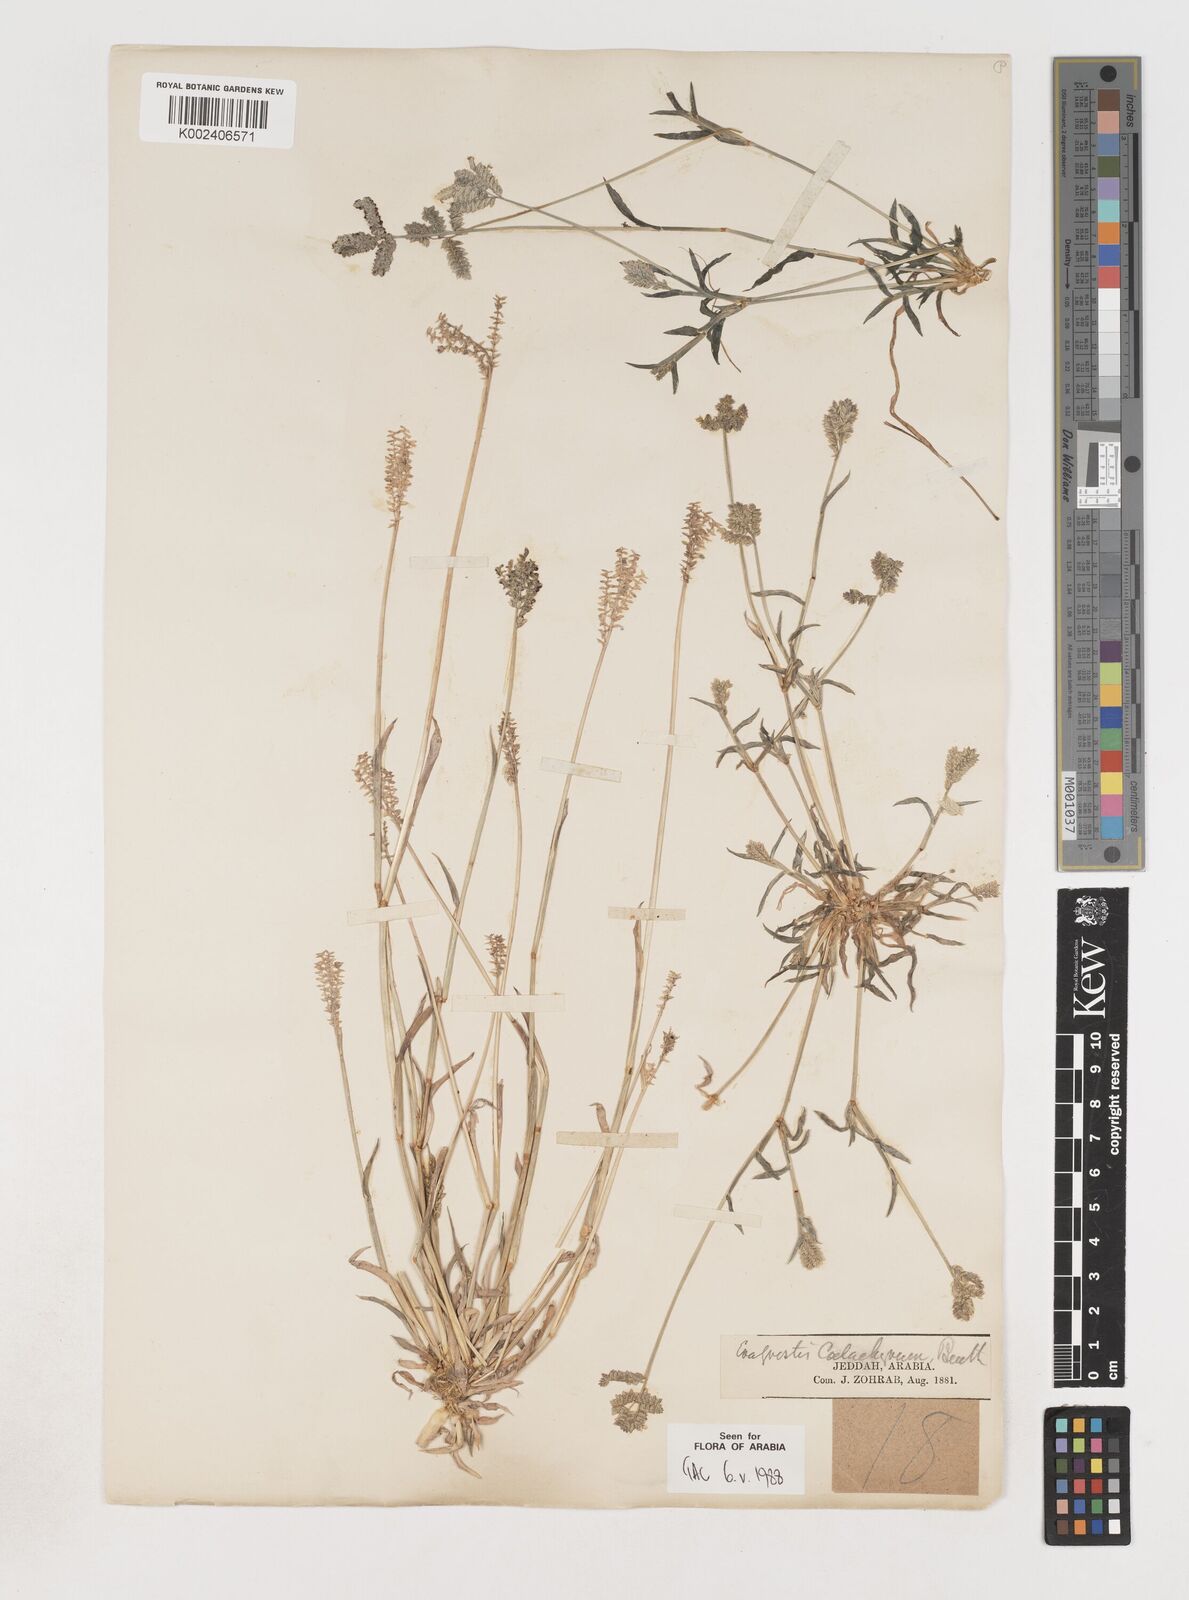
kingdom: Plantae
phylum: Tracheophyta
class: Liliopsida
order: Poales
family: Poaceae
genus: Coelachyrum
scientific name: Coelachyrum brevifolium
